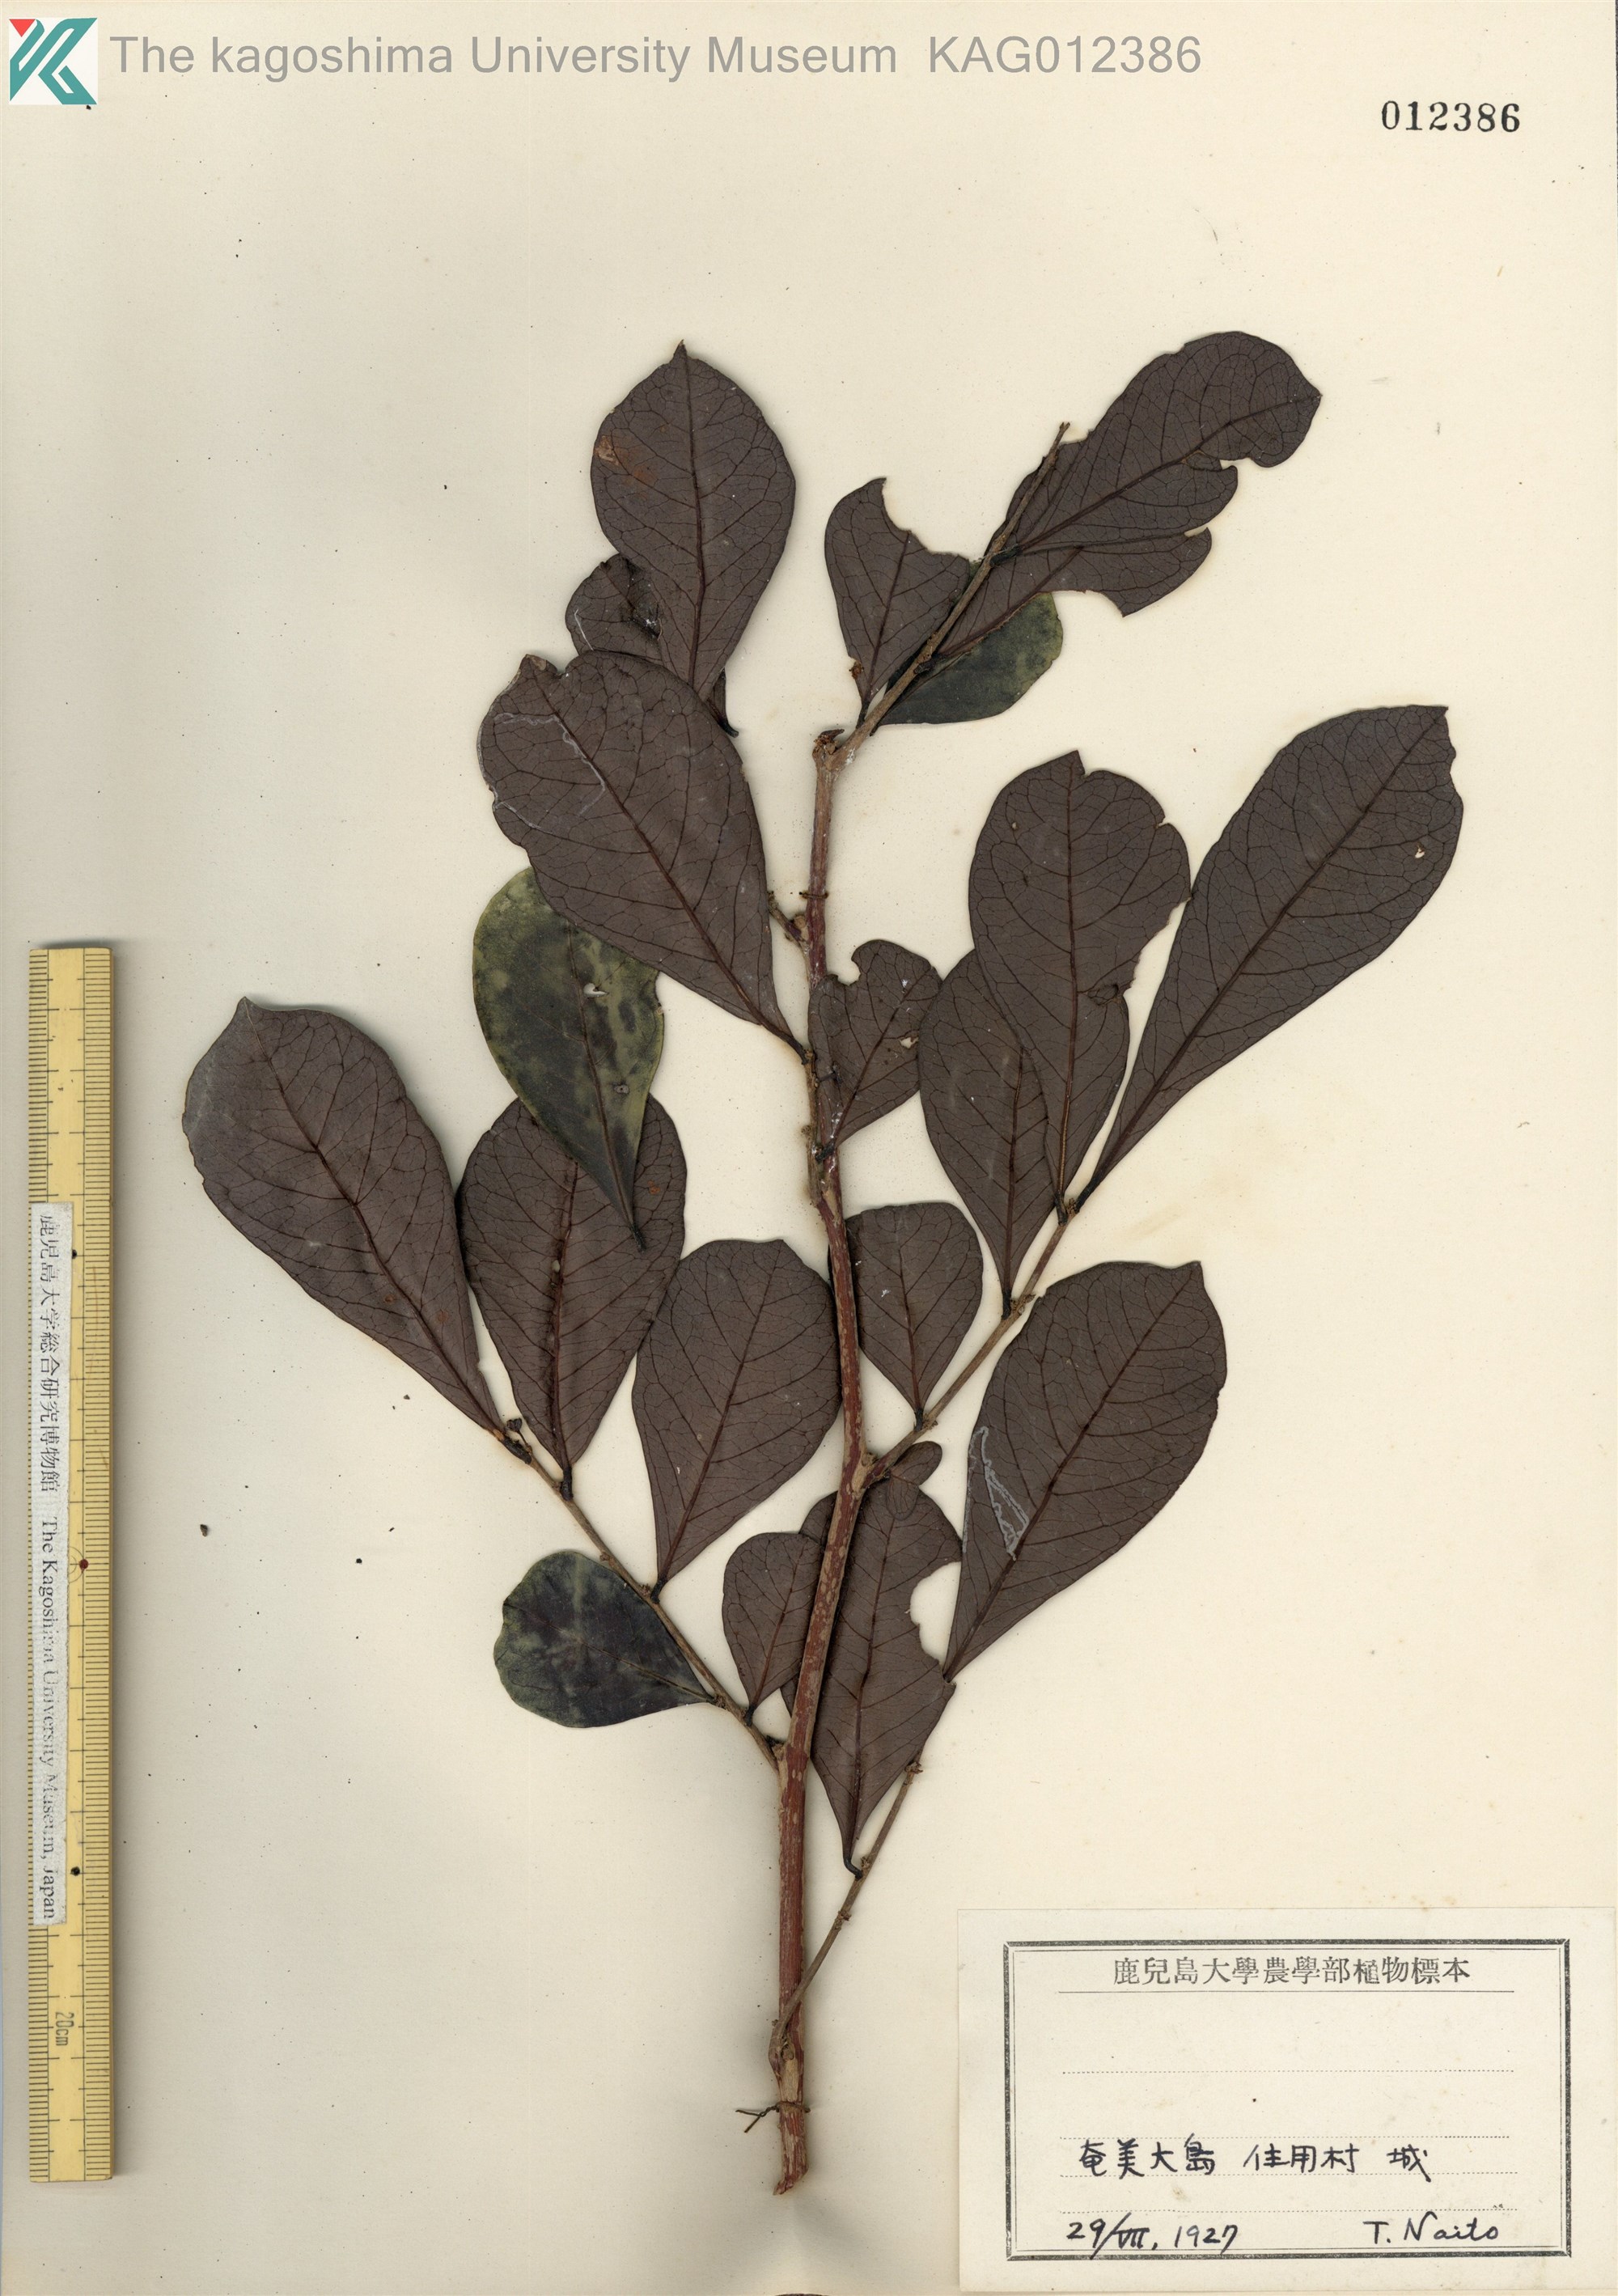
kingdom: Plantae
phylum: Tracheophyta
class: Magnoliopsida
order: Malpighiales
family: Phyllanthaceae
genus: Glochidion
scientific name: Glochidion obovatum
